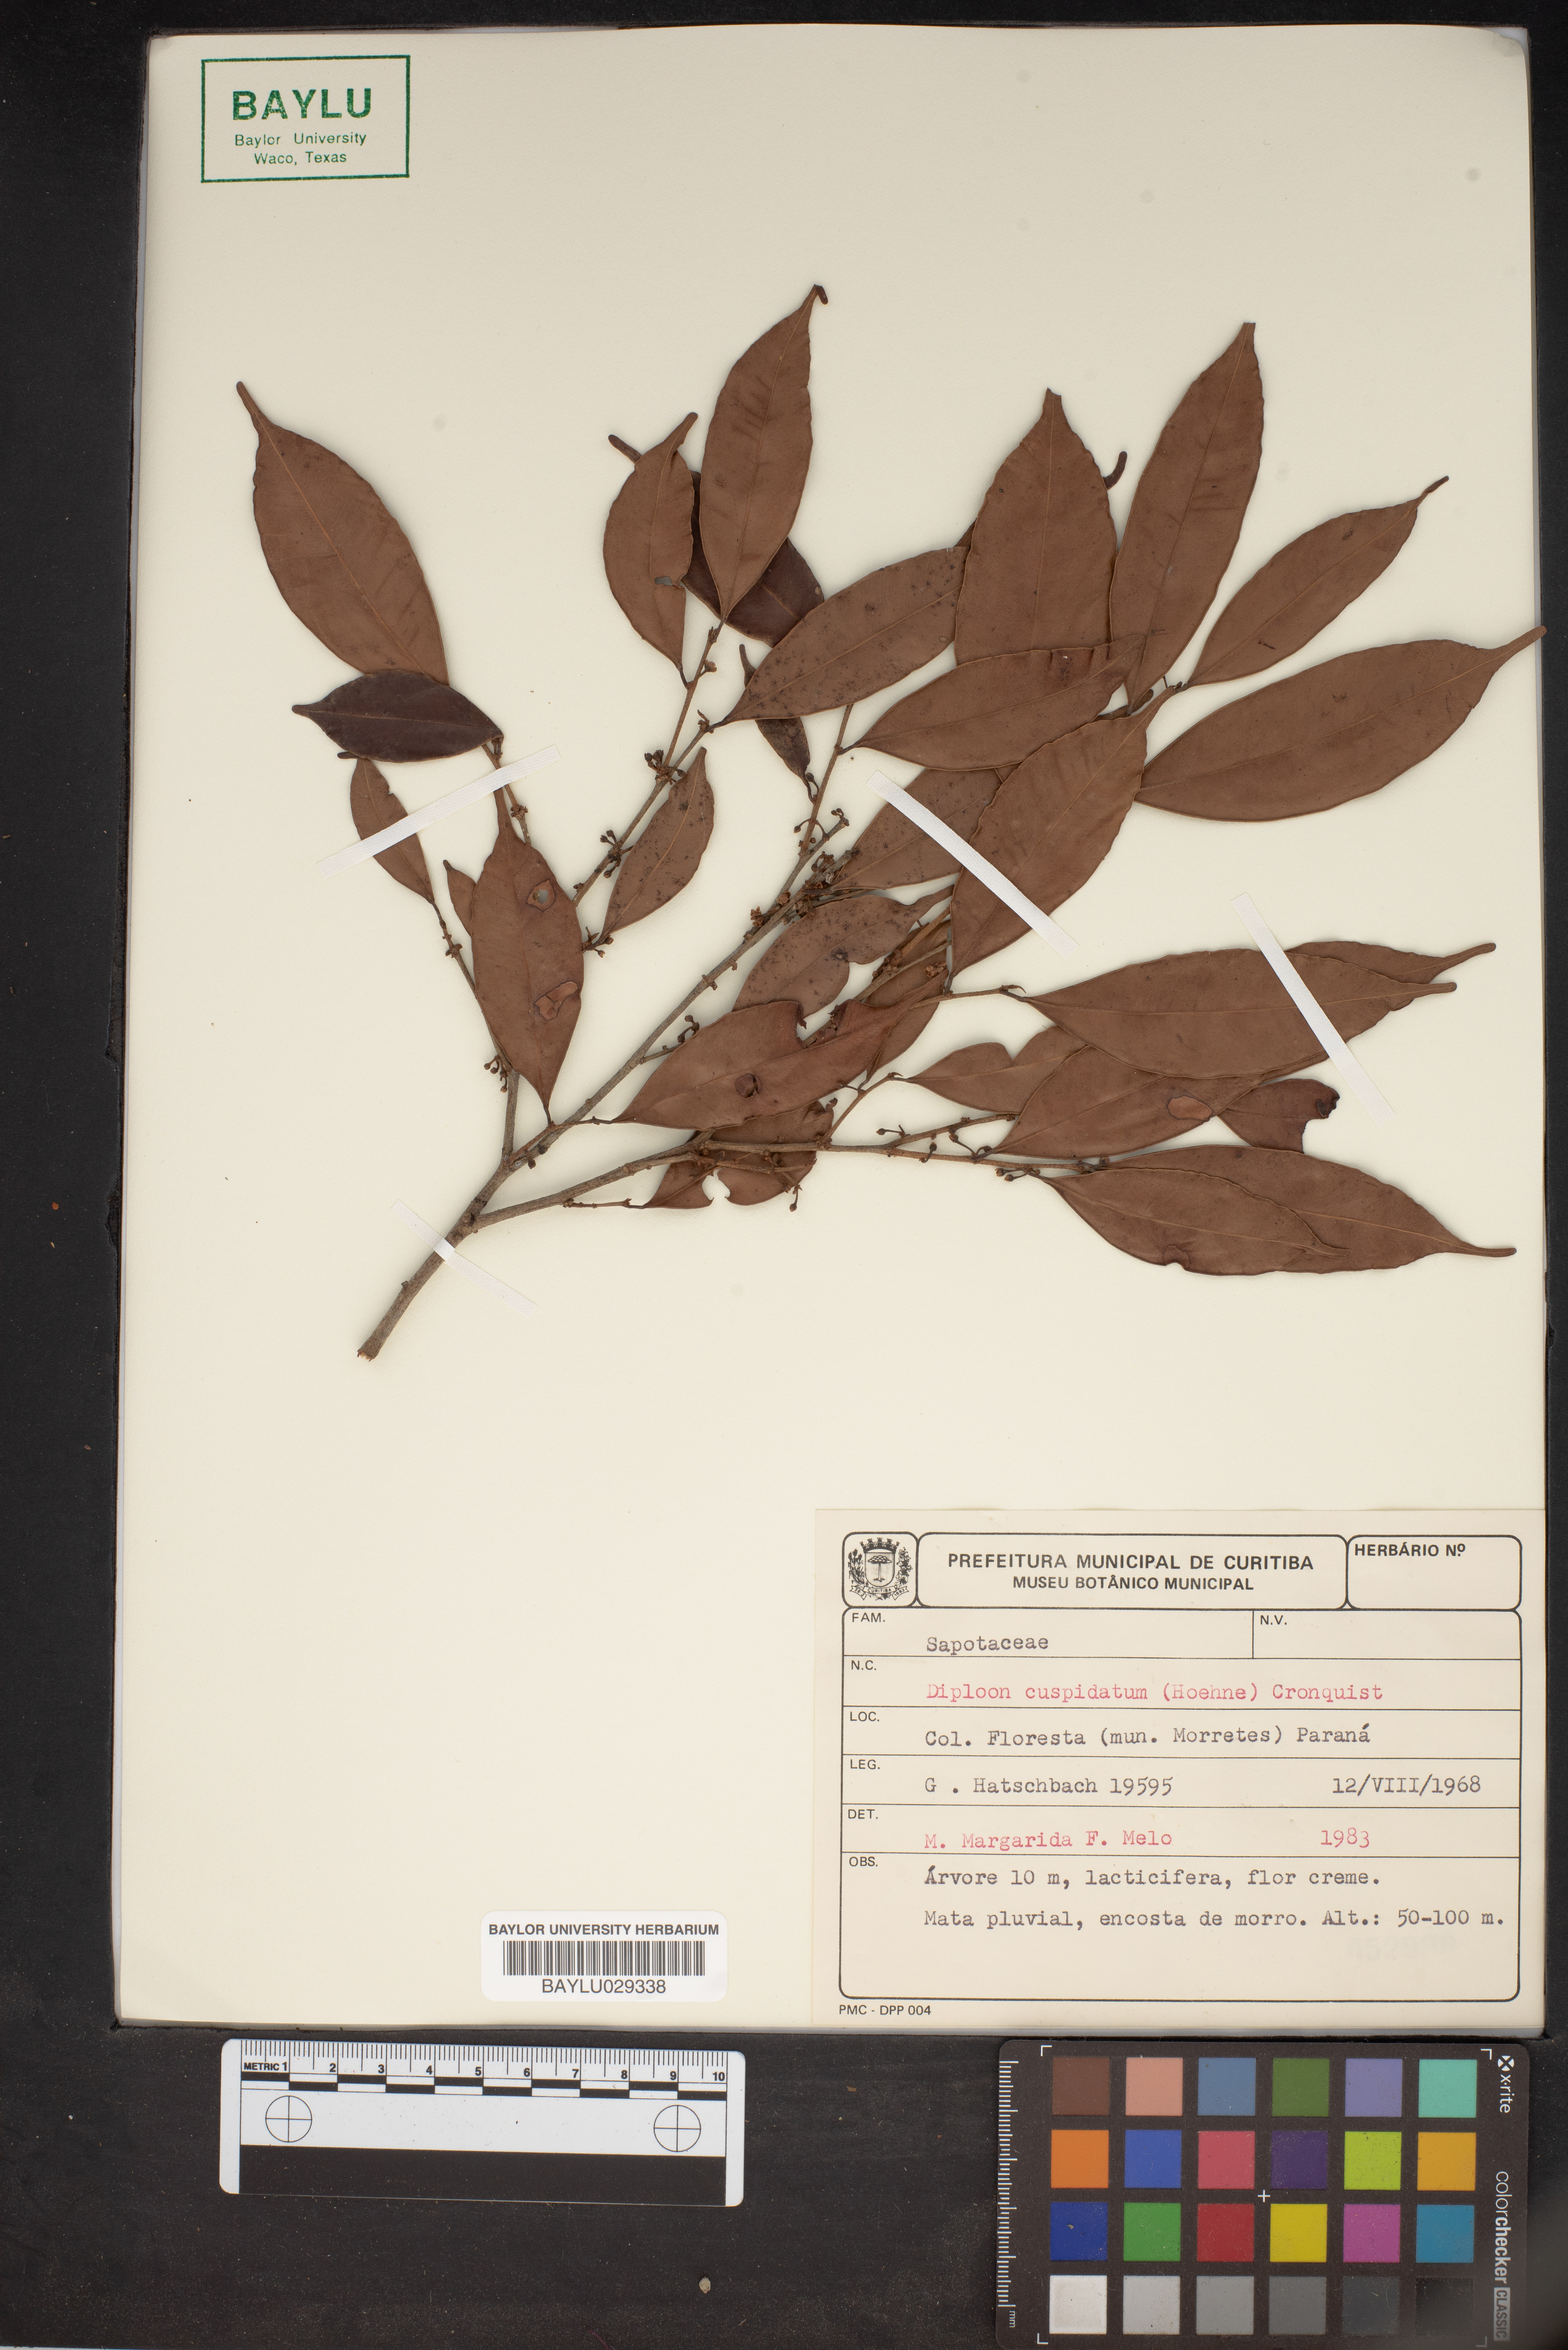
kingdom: Plantae
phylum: Tracheophyta
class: Magnoliopsida
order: Ericales
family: Sapotaceae
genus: Diploon
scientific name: Diploon cuspidatum
